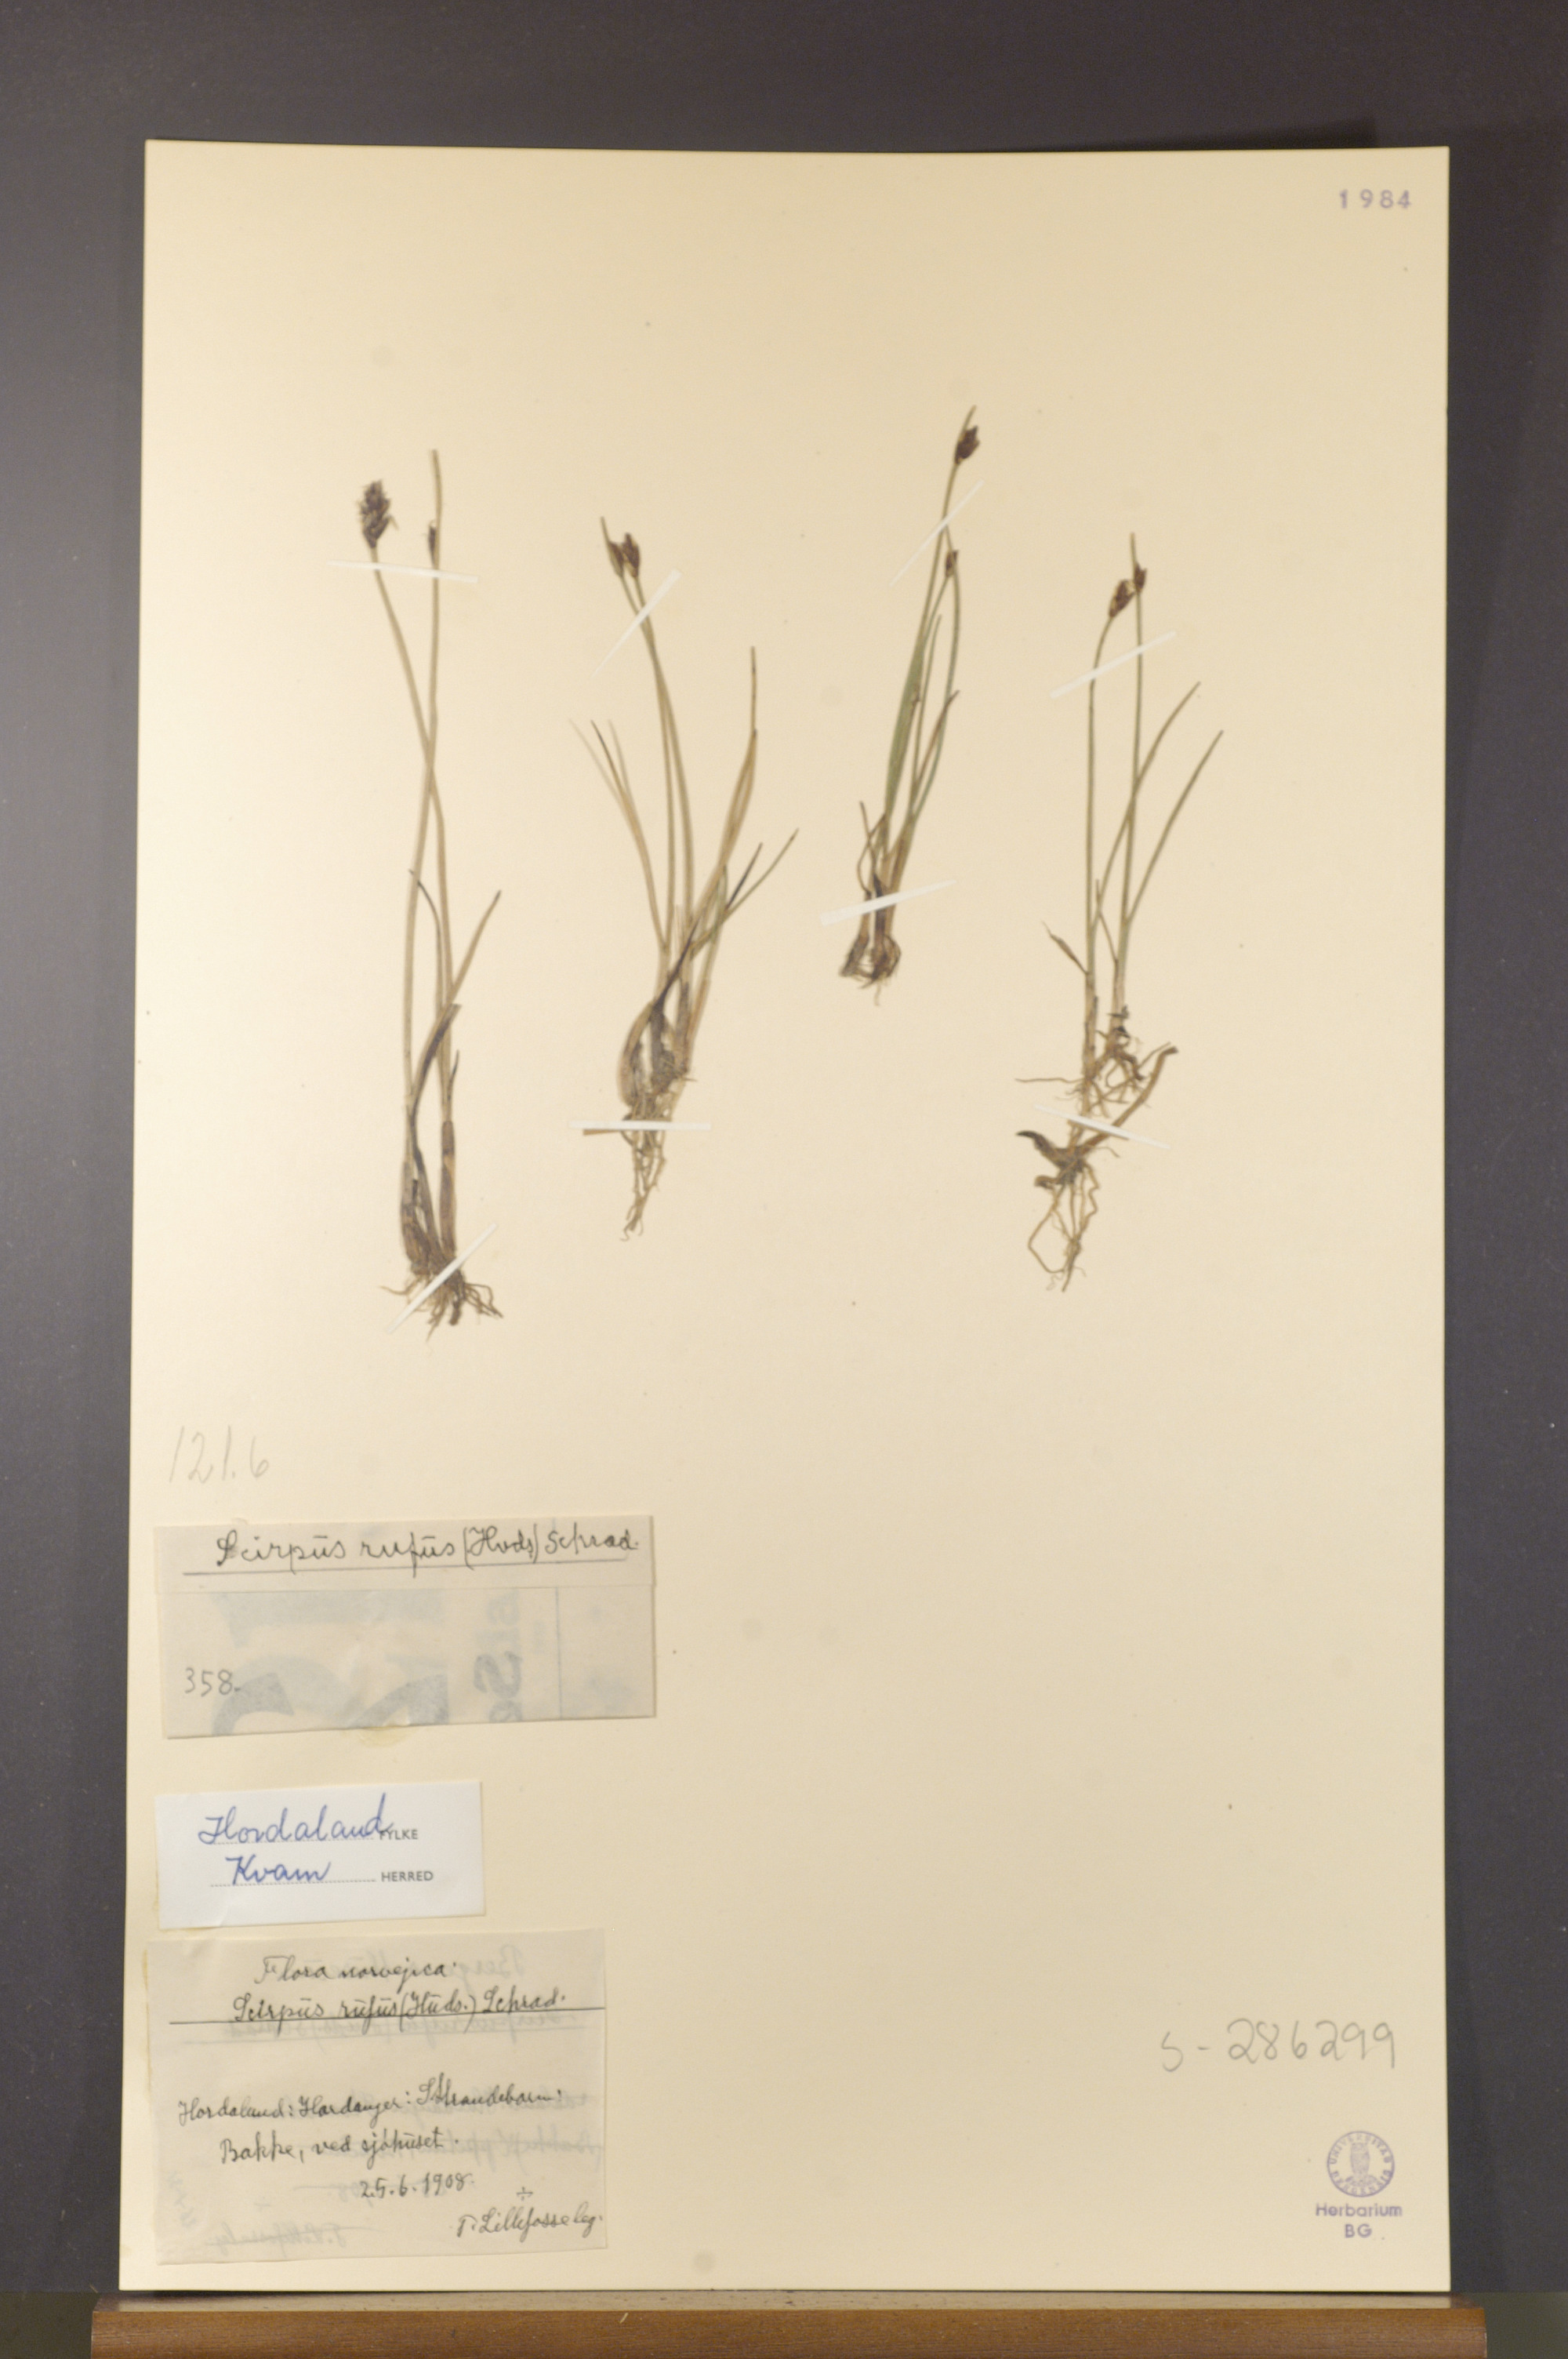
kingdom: Plantae
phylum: Tracheophyta
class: Liliopsida
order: Poales
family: Cyperaceae
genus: Blysmus
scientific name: Blysmus rufus
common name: Saltmarsh flat-sedge
